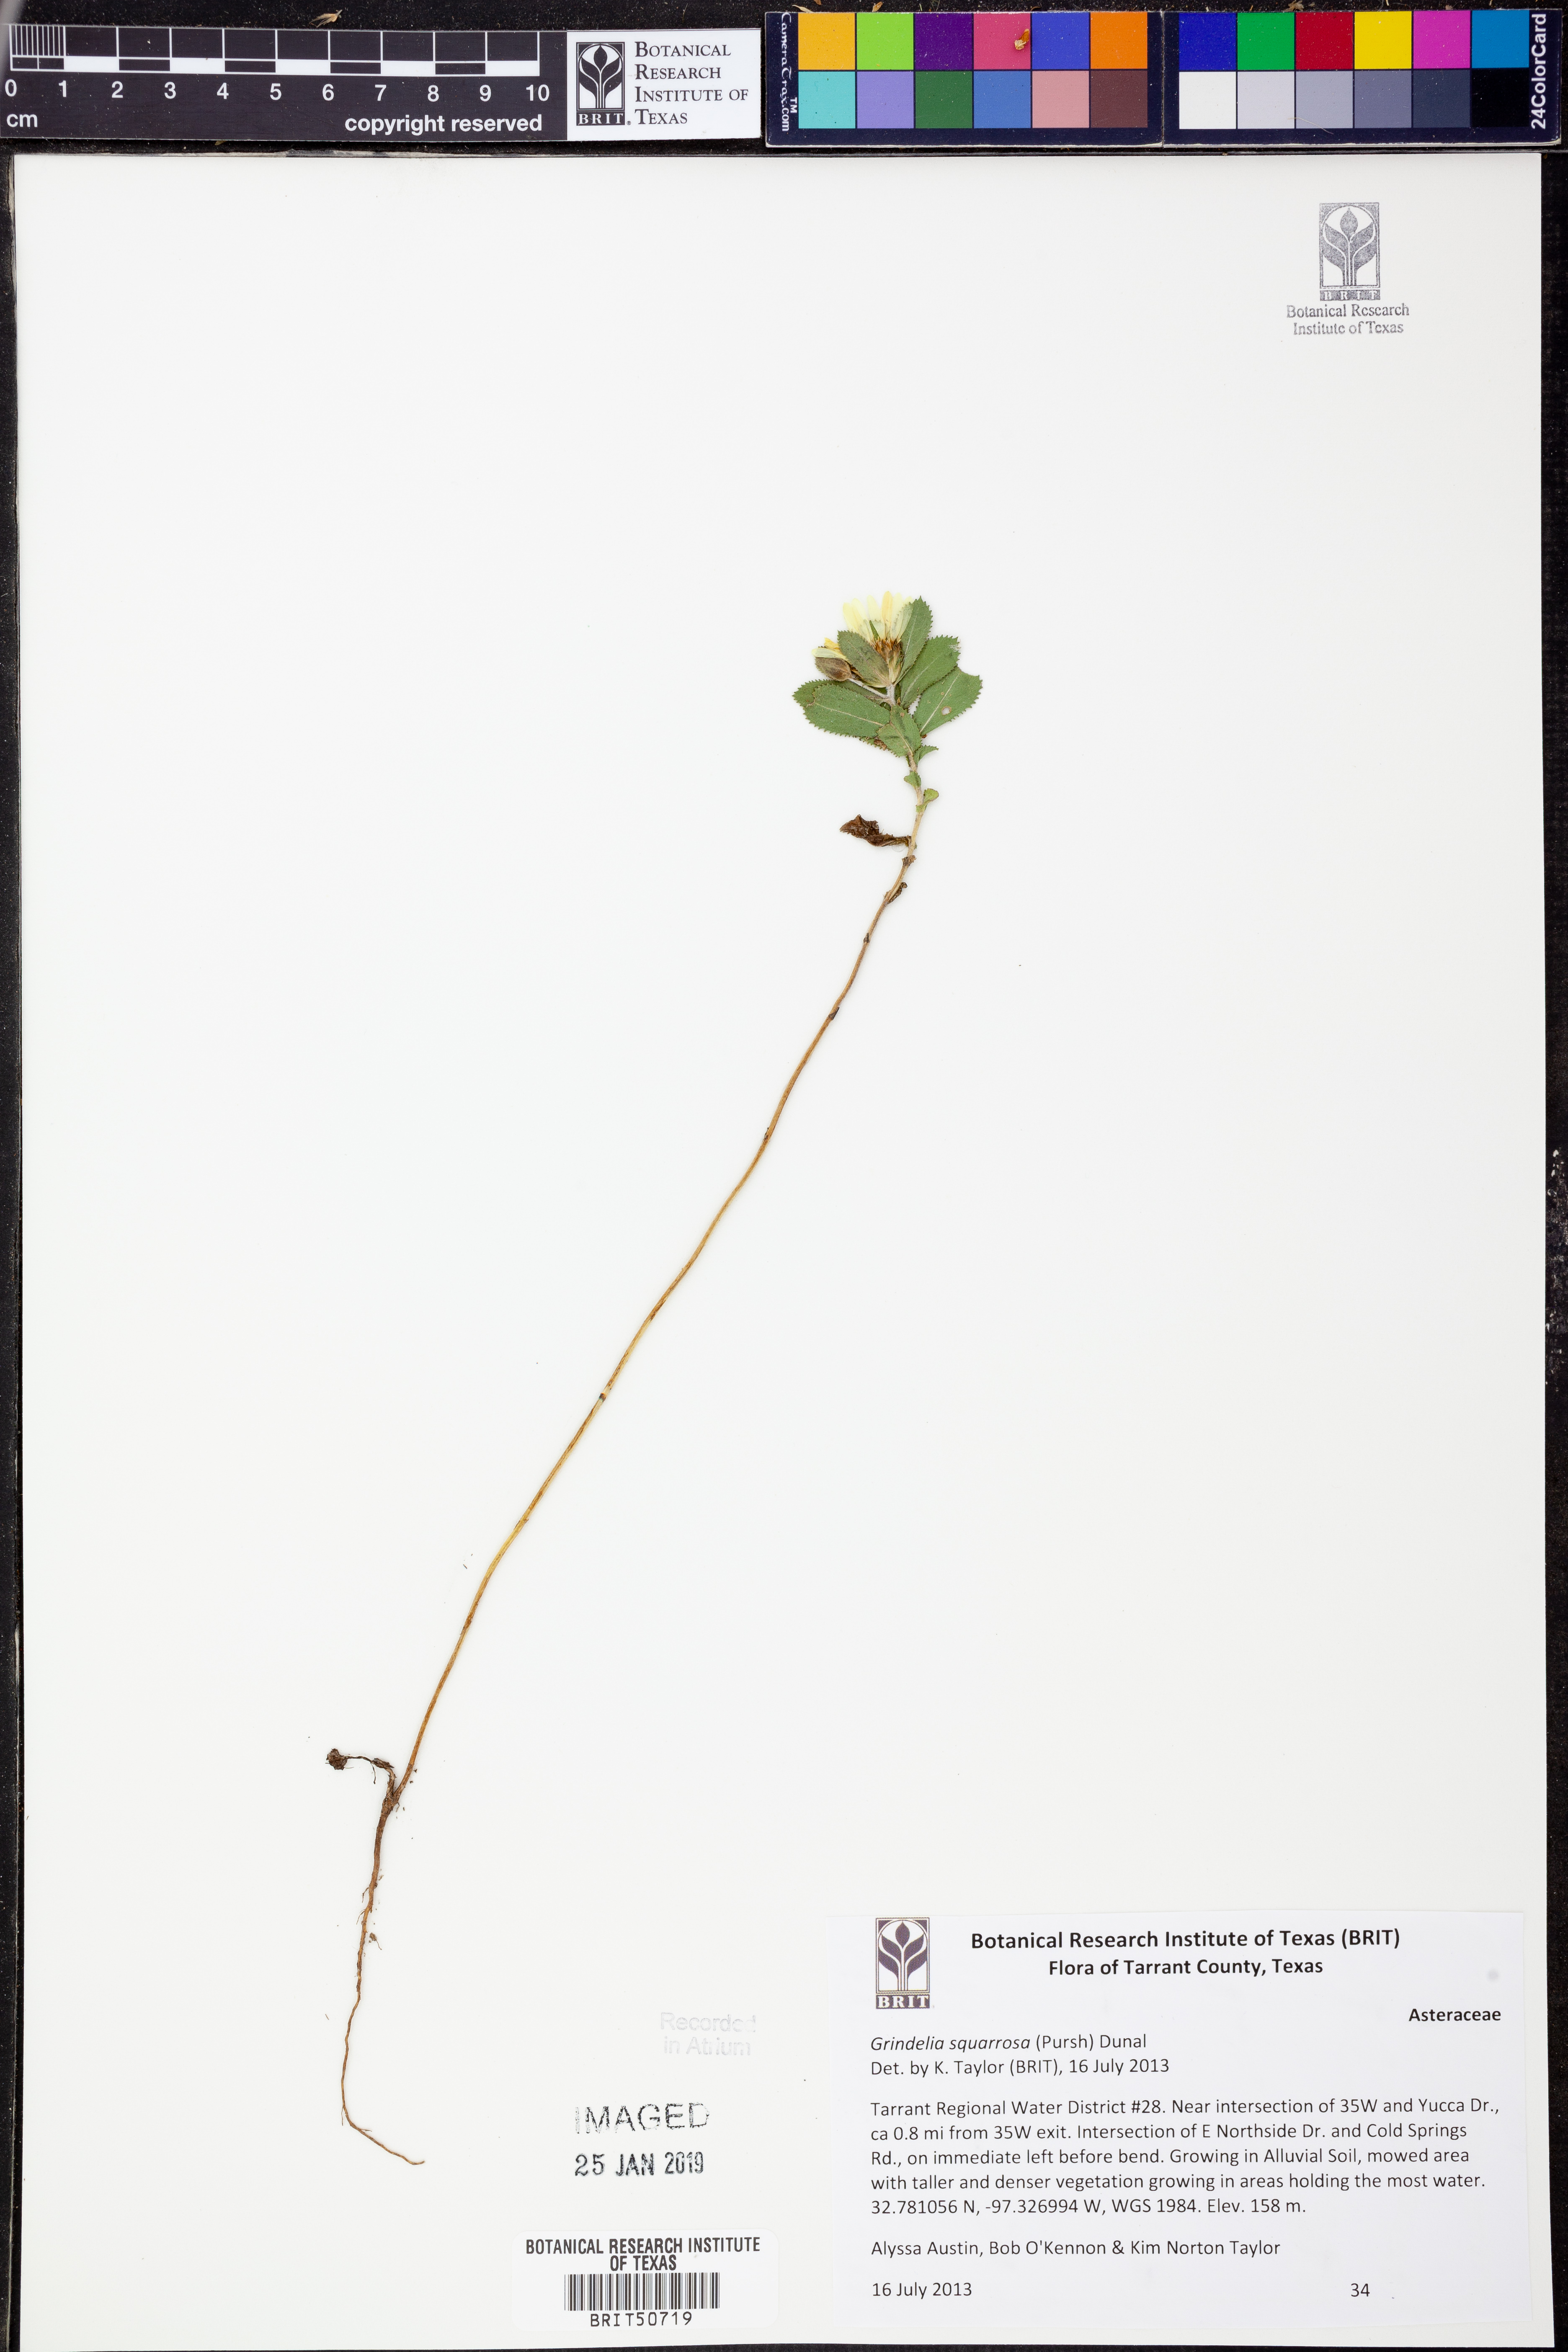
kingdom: Plantae
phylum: Tracheophyta
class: Magnoliopsida
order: Asterales
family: Asteraceae
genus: Grindelia
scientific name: Grindelia squarrosa
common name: Curly-cup gumweed
